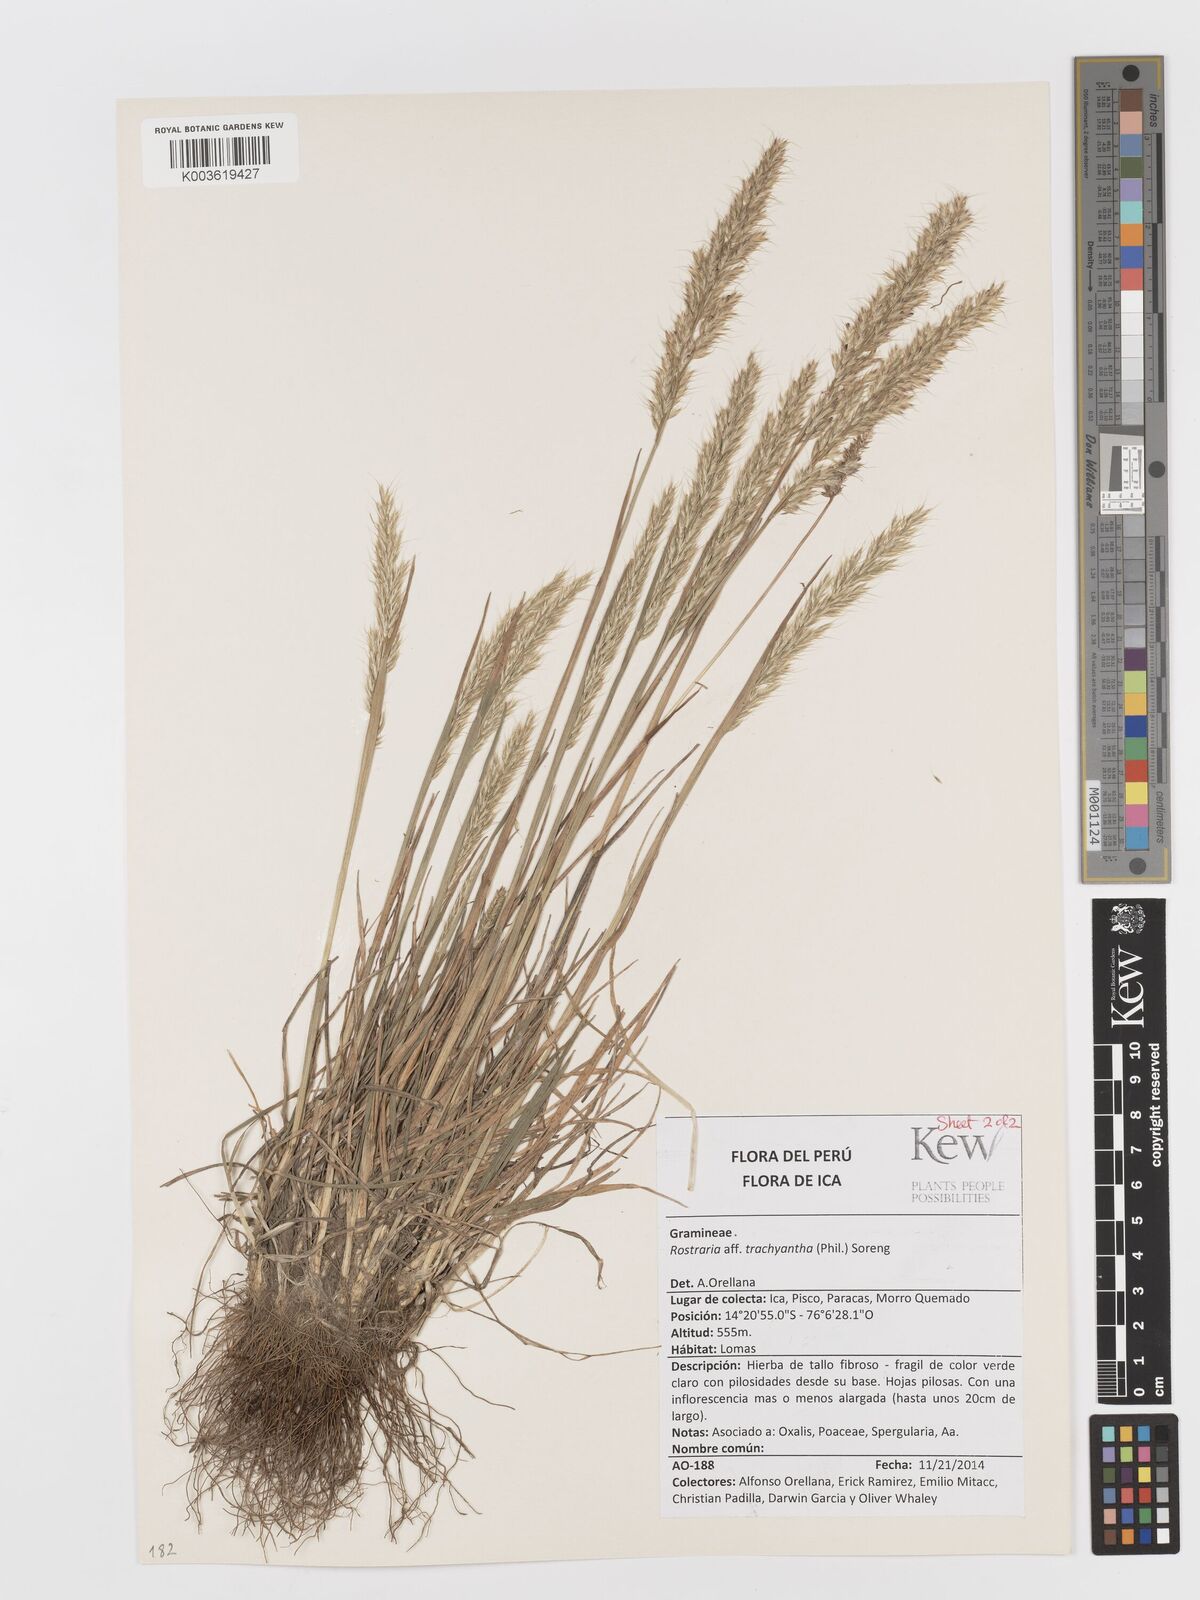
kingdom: Plantae
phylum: Tracheophyta
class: Liliopsida
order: Poales
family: Poaceae
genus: Rostraria
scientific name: Rostraria trachyantha
